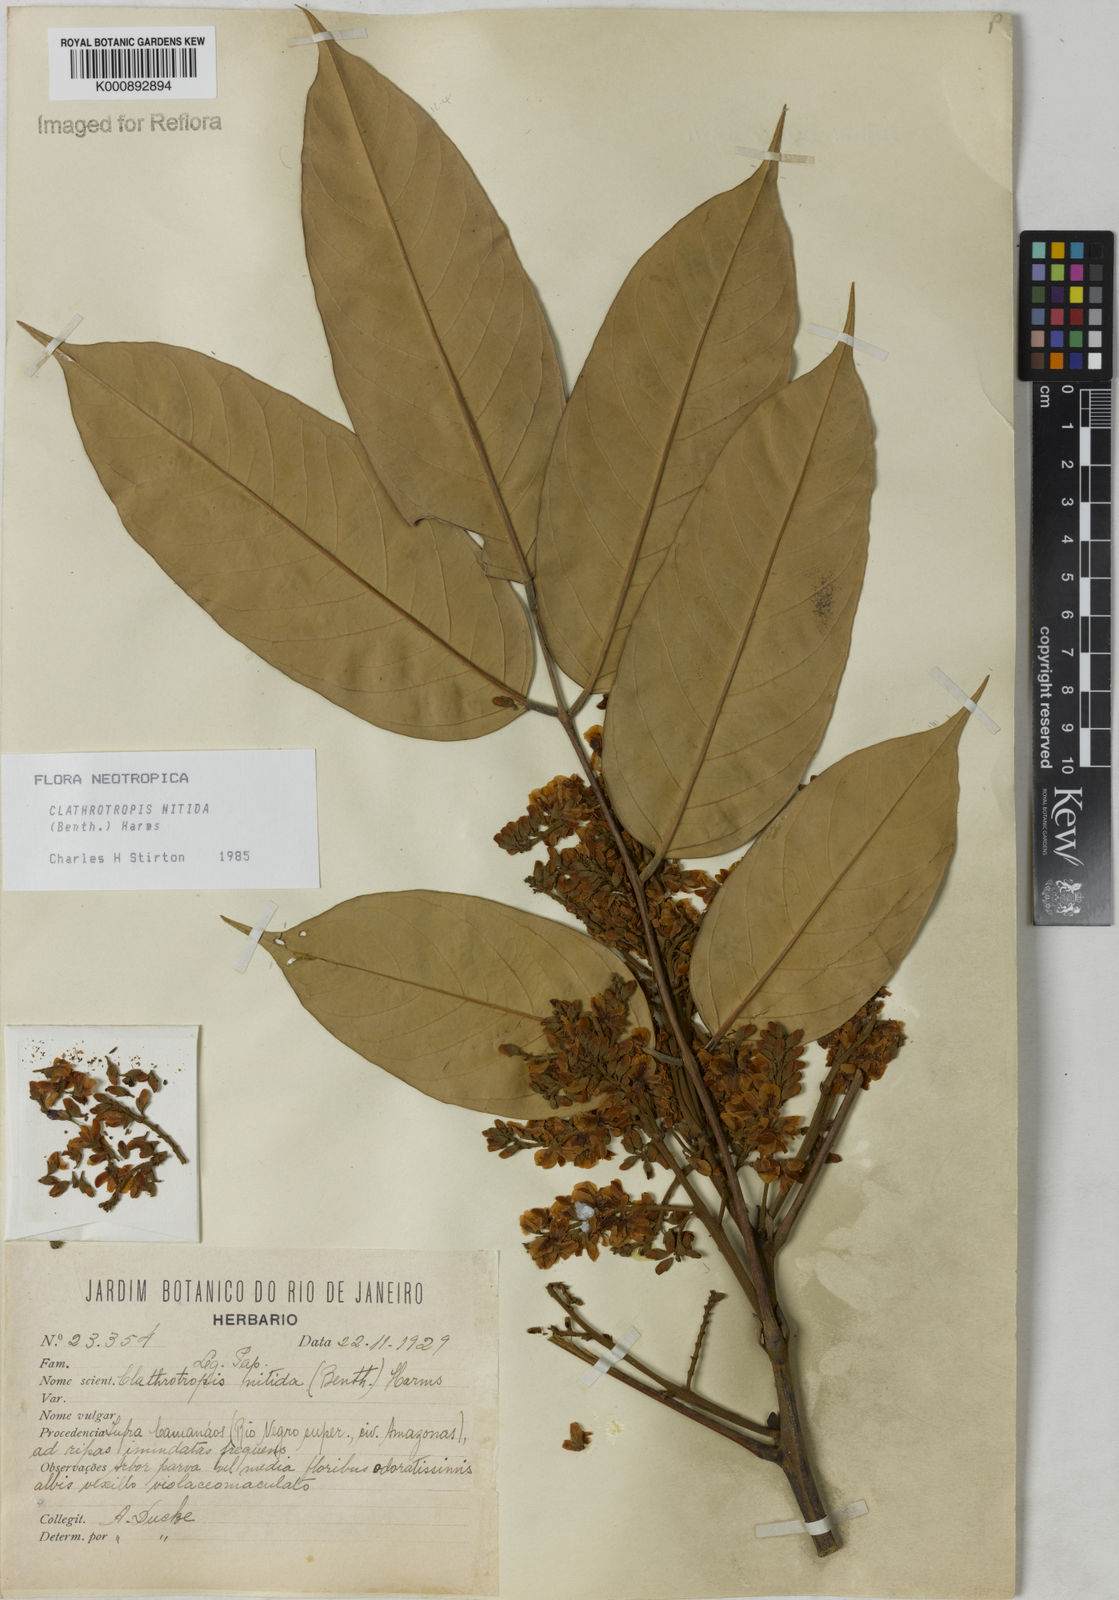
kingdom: Plantae
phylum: Tracheophyta
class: Magnoliopsida
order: Fabales
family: Fabaceae
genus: Clathrotropis
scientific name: Clathrotropis nitida
